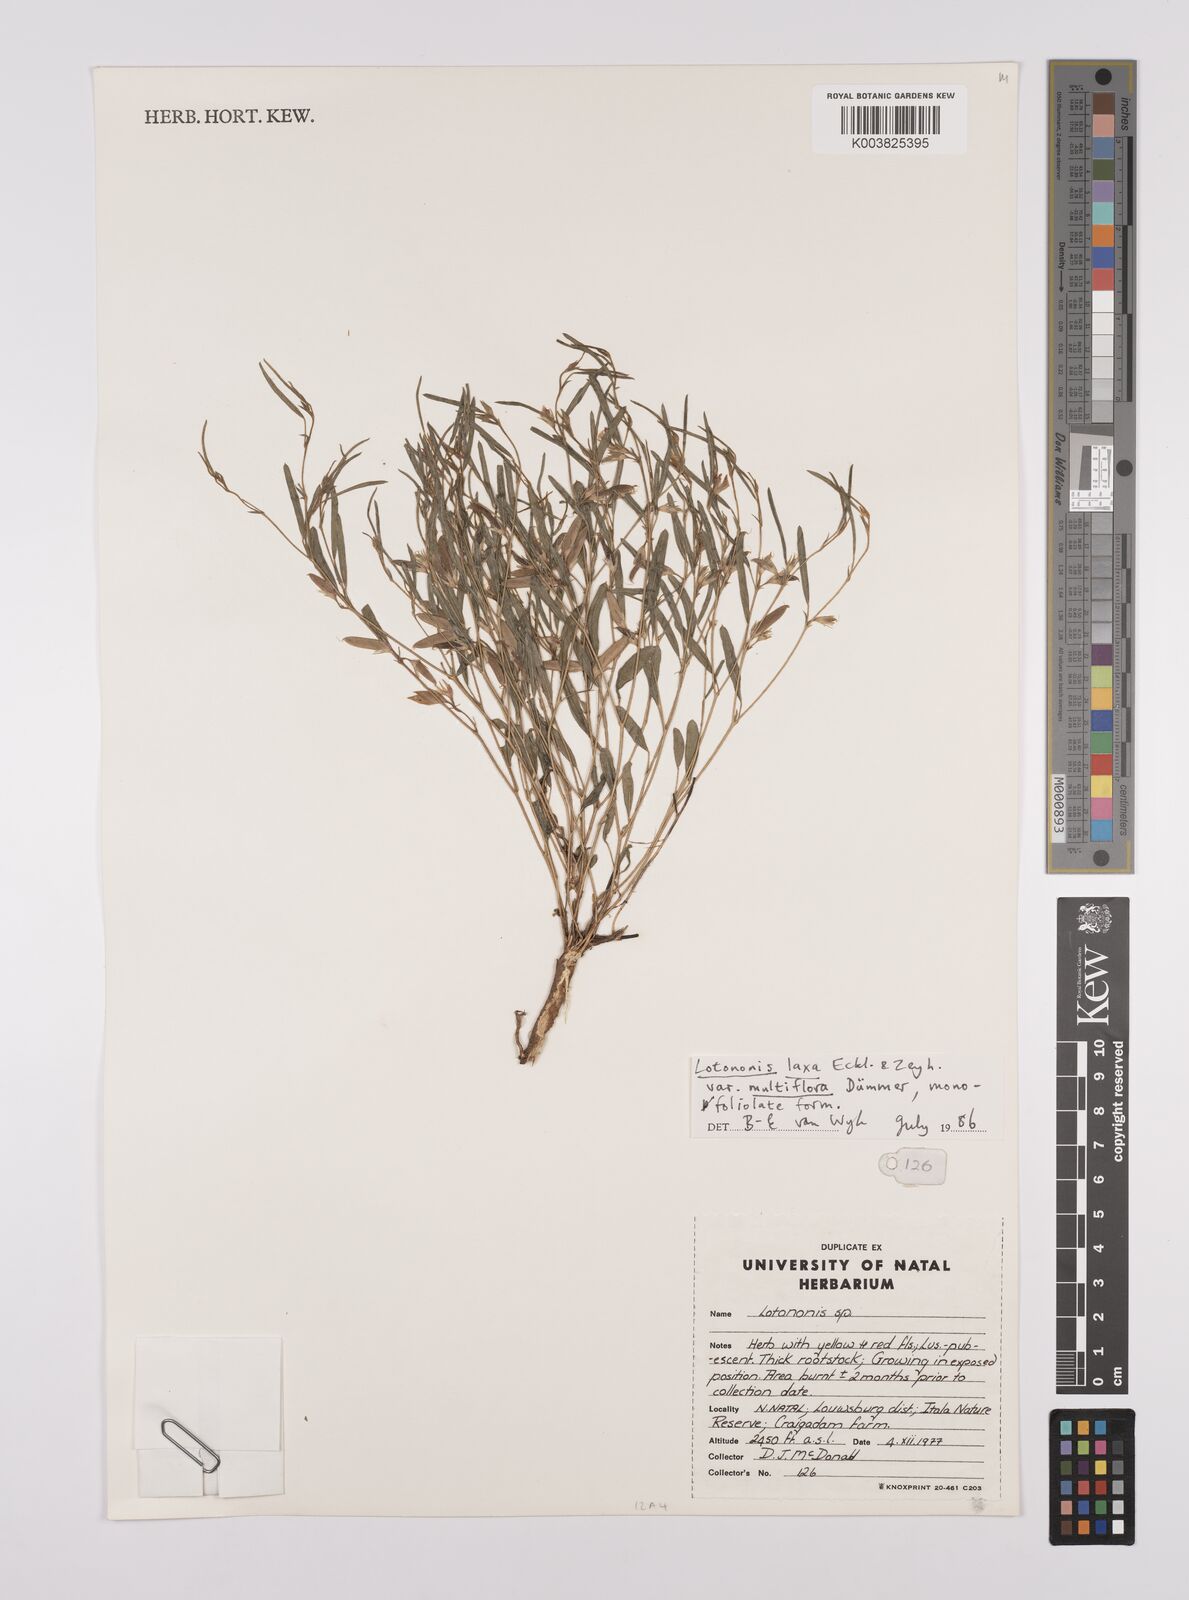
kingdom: Plantae
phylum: Tracheophyta
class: Magnoliopsida
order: Fabales
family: Fabaceae
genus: Lotononis
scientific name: Lotononis laxa
